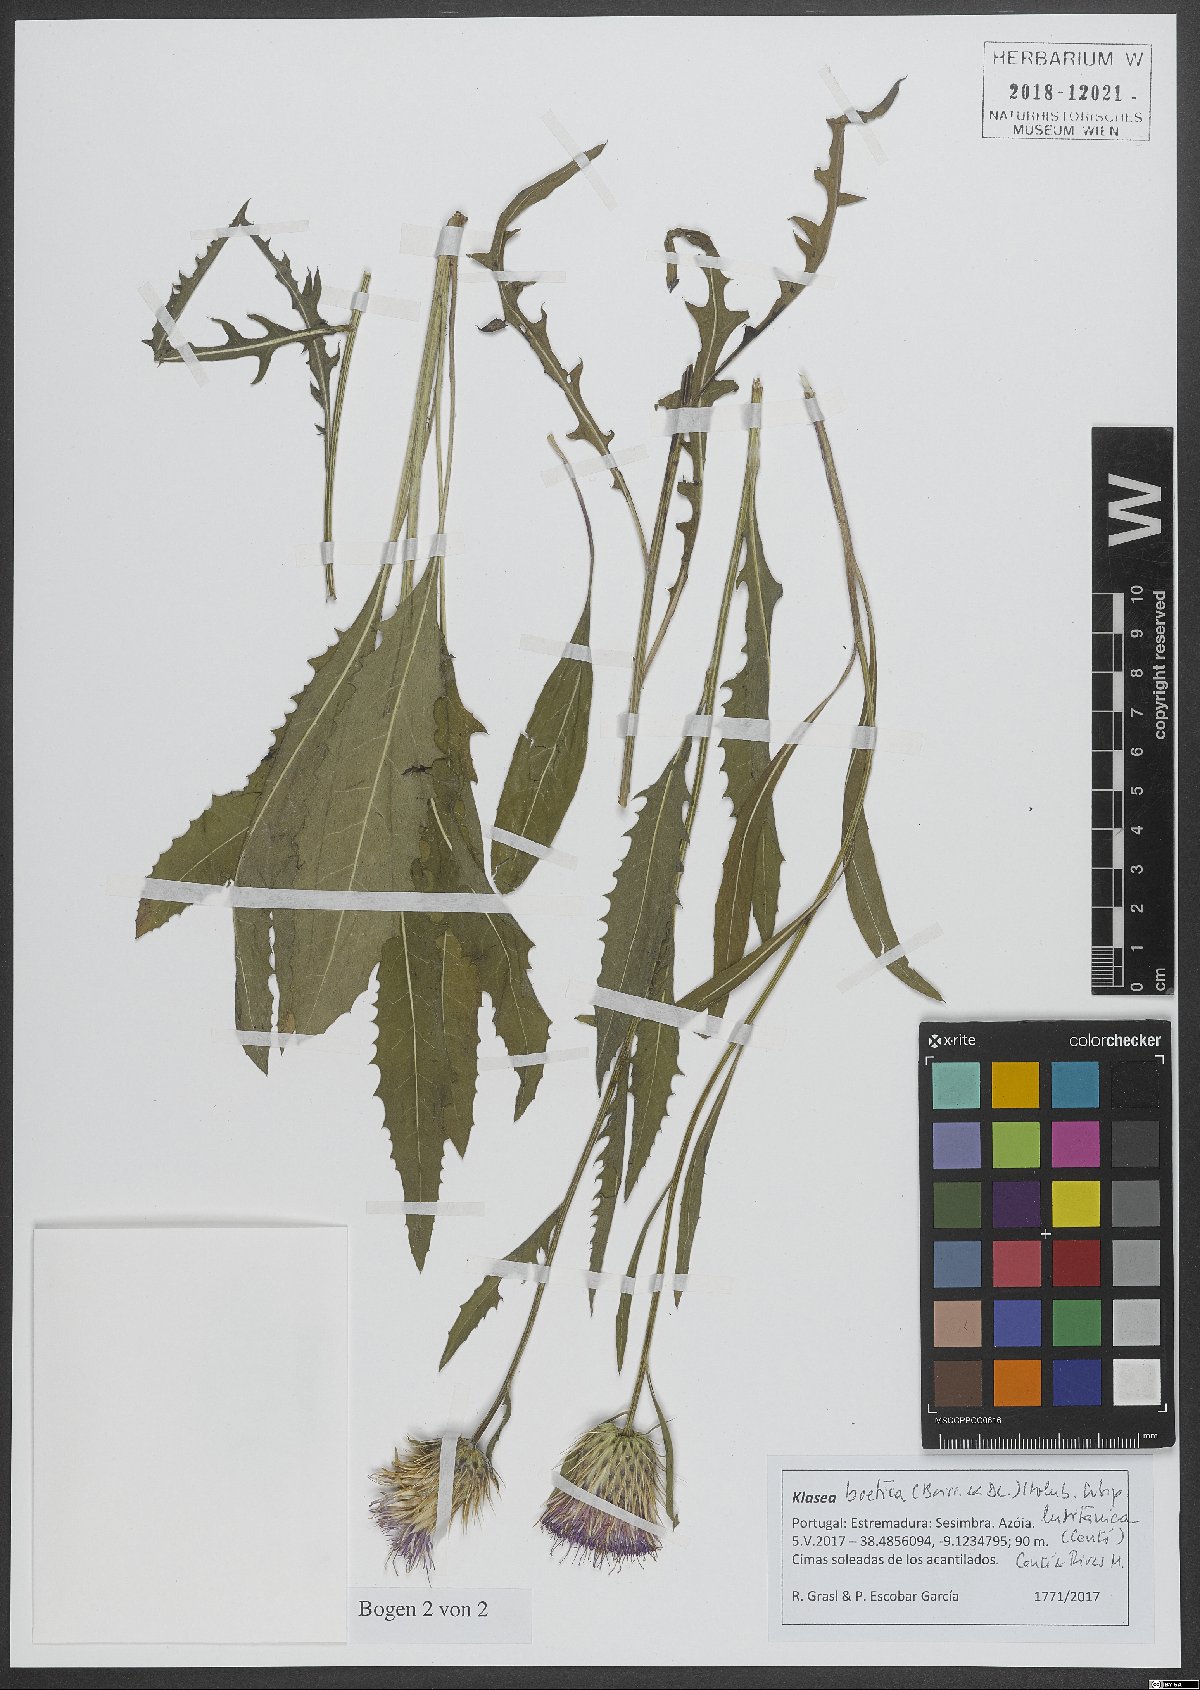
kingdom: Plantae
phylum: Tracheophyta
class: Magnoliopsida
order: Asterales
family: Asteraceae
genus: Klasea
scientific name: Klasea boetica
